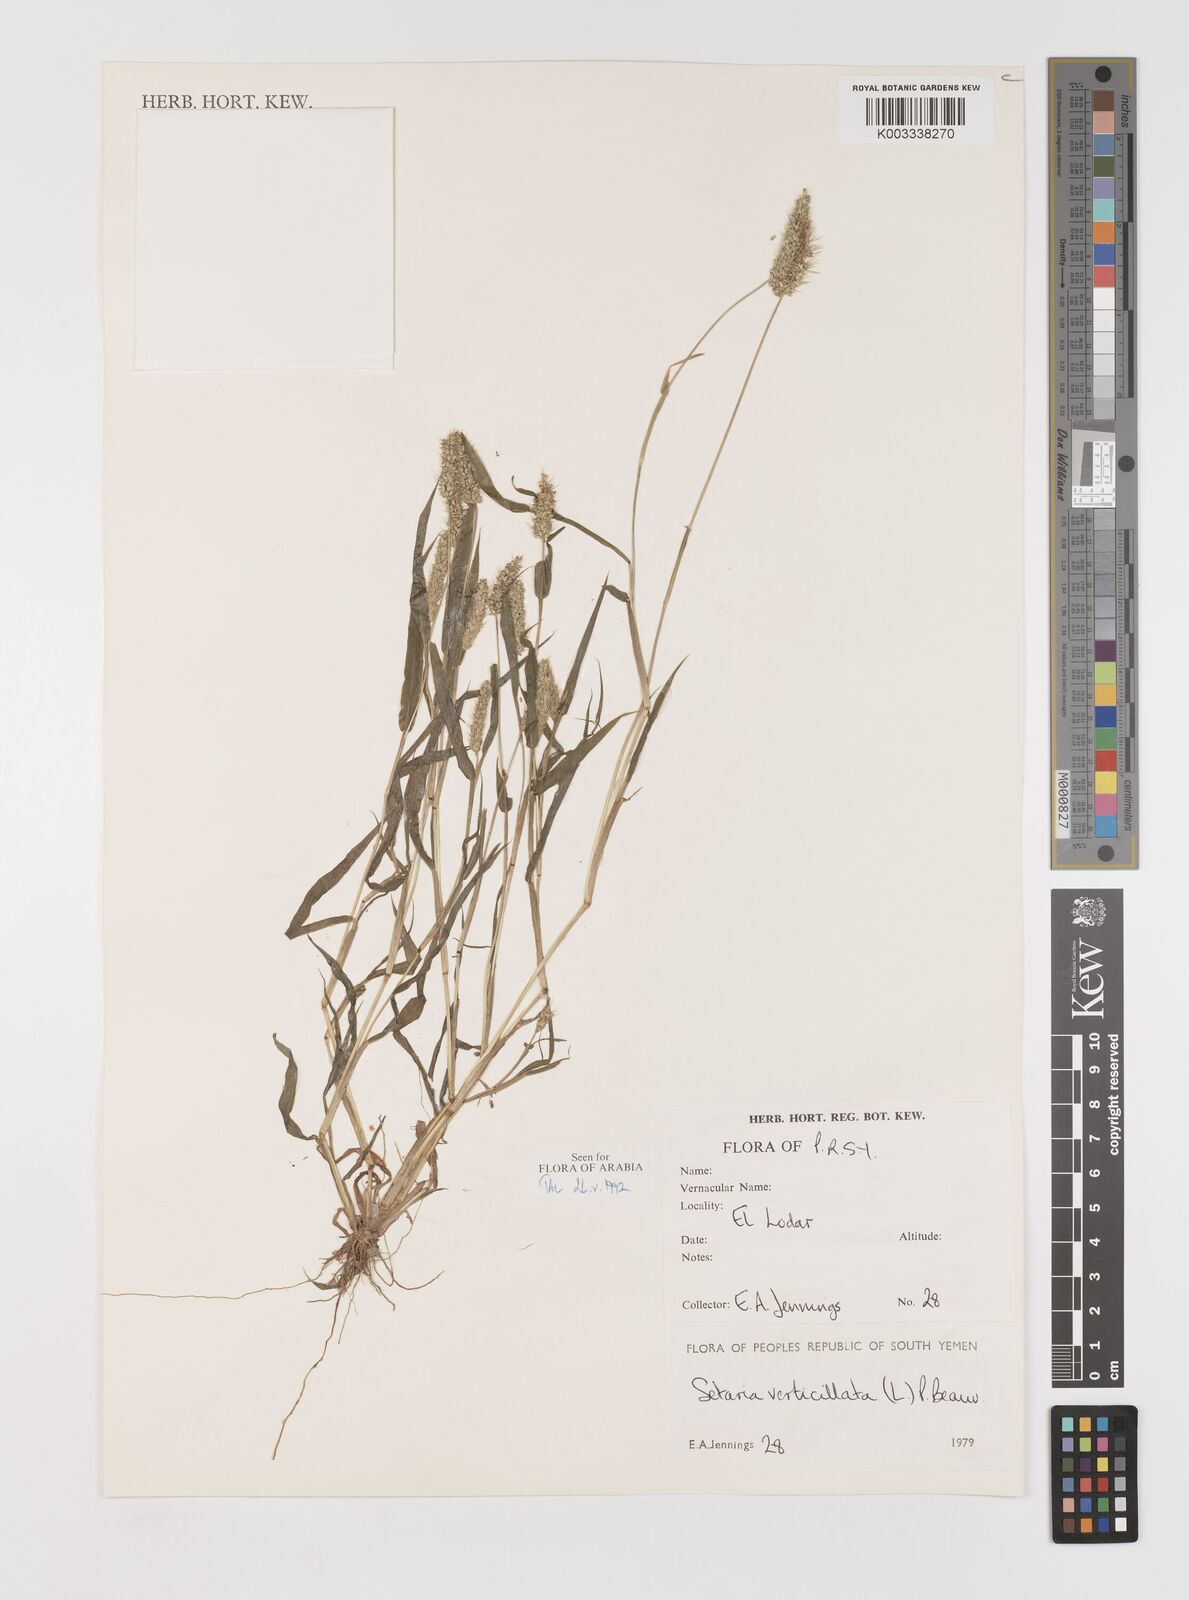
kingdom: Plantae
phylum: Tracheophyta
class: Liliopsida
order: Poales
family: Poaceae
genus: Setaria
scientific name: Setaria verticillata
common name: Hooked bristlegrass
